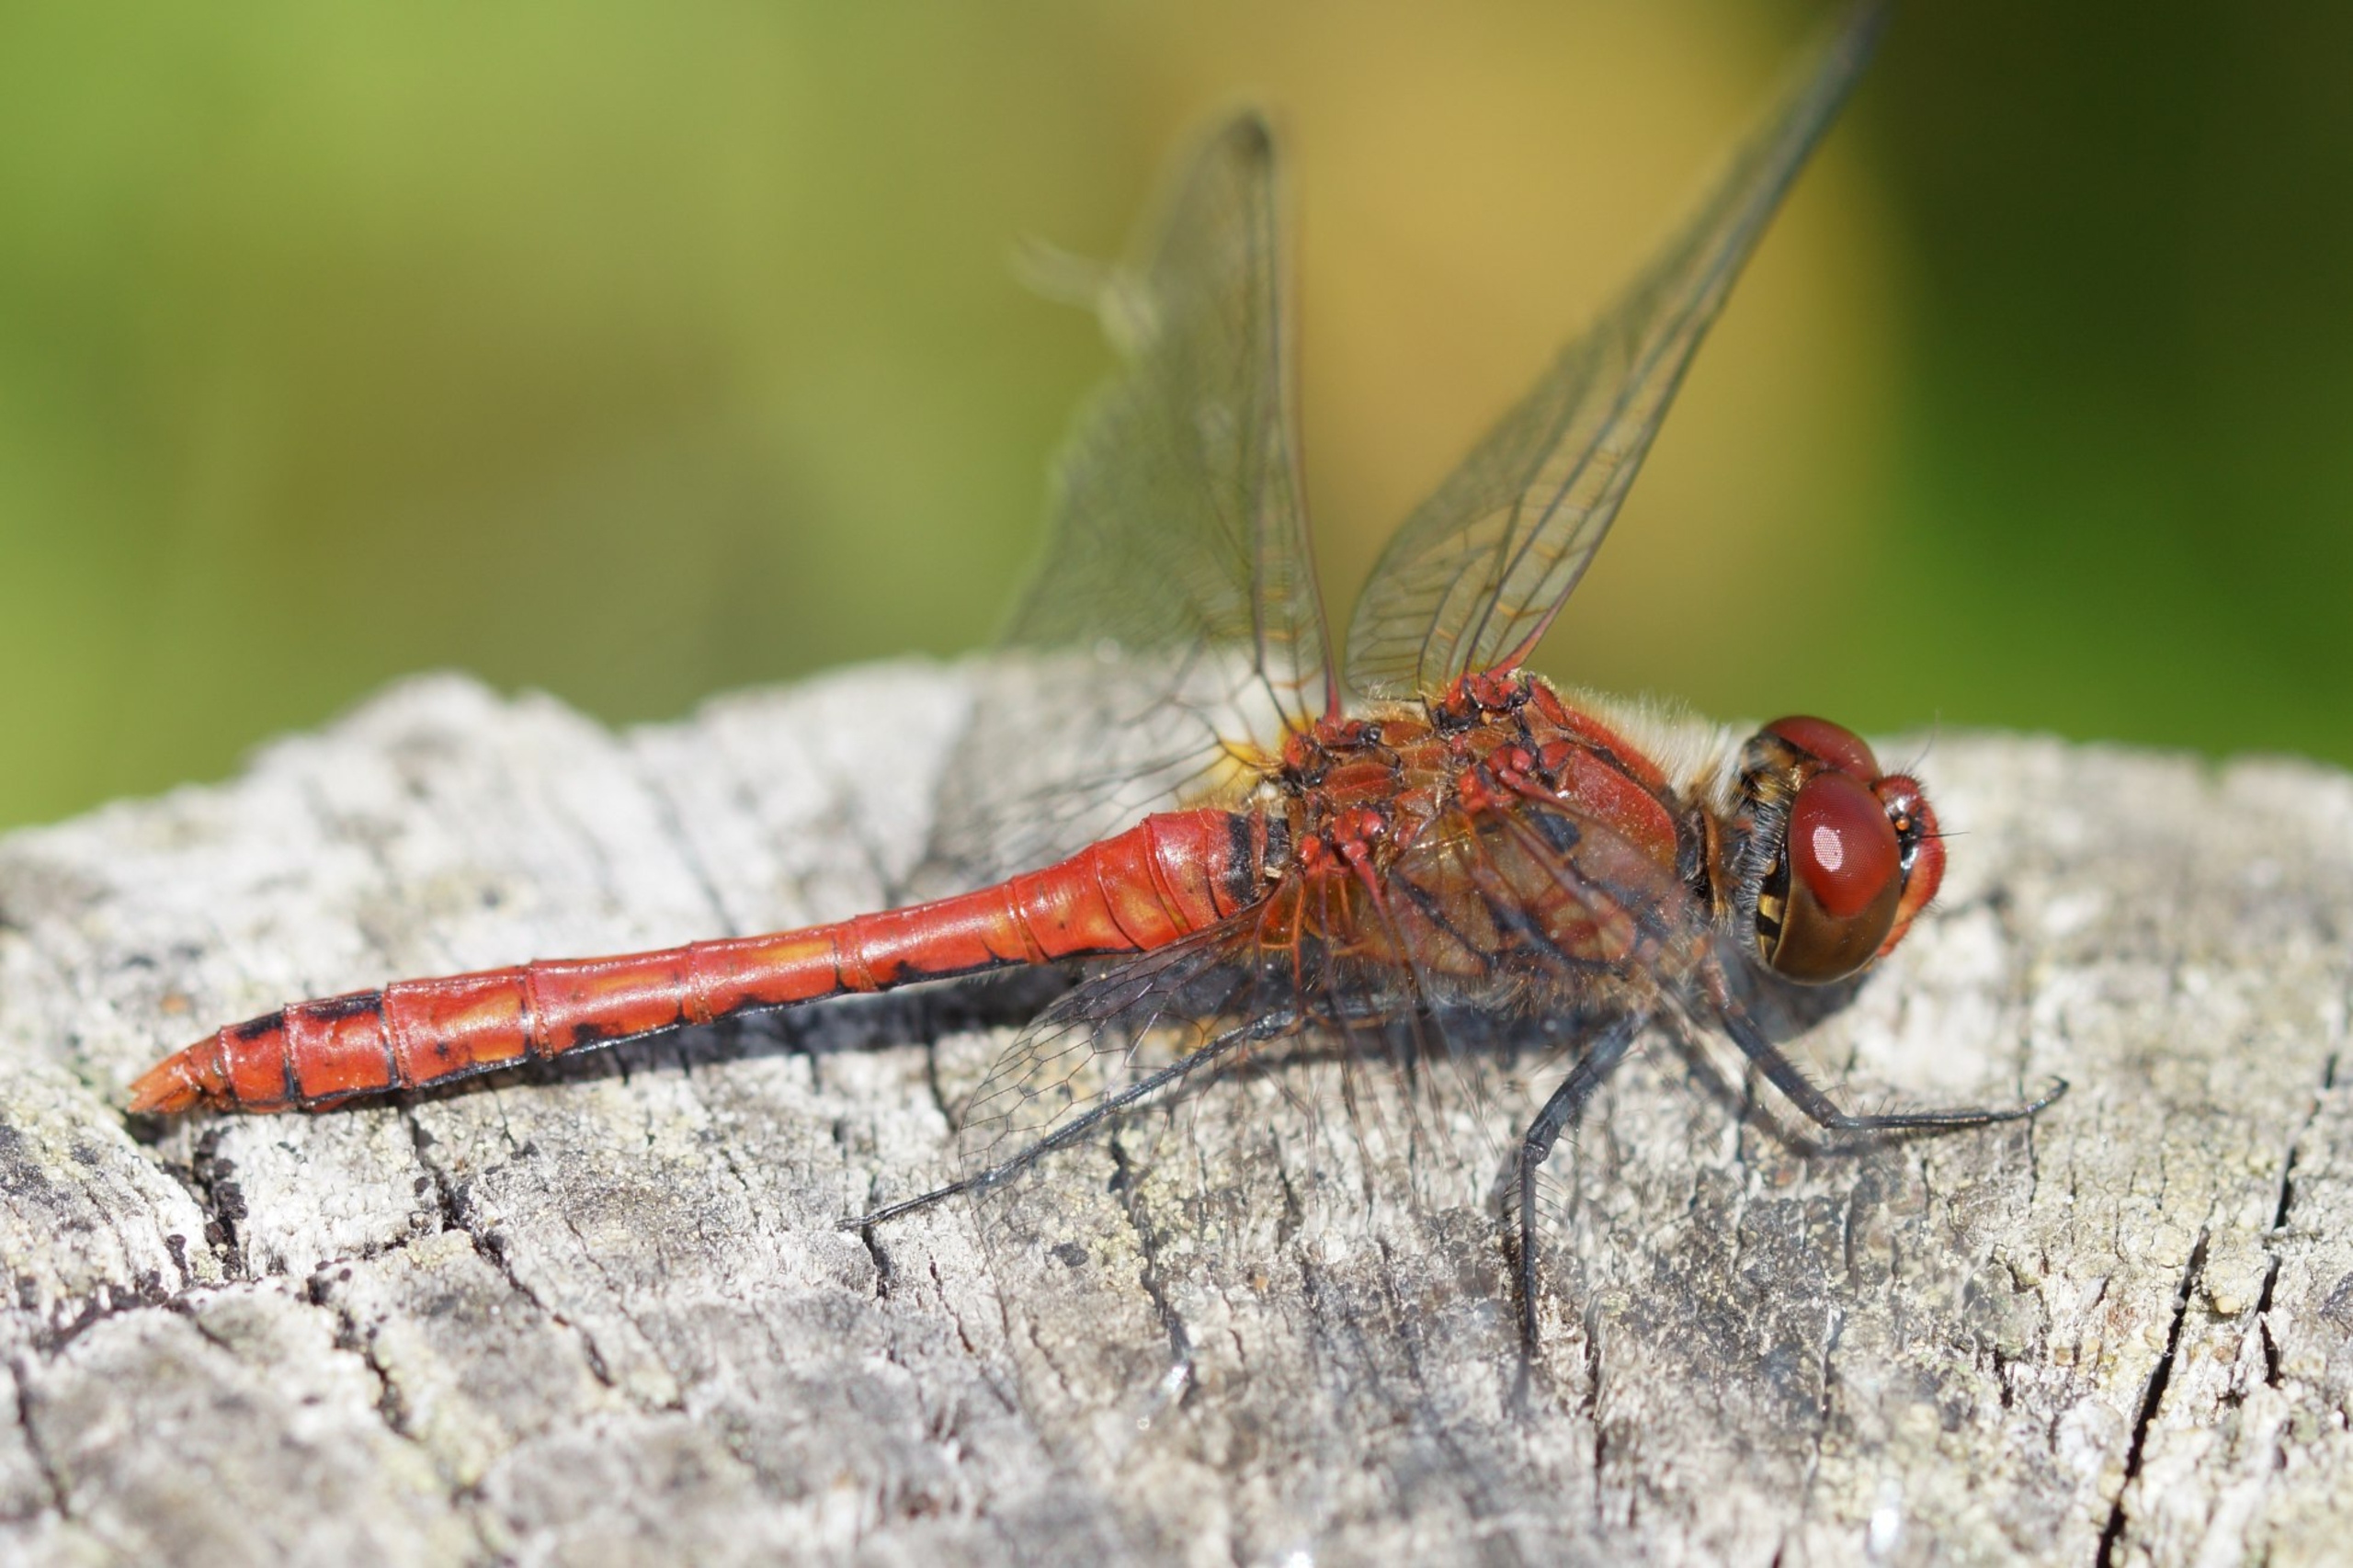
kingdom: Animalia
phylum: Arthropoda
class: Insecta
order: Odonata
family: Libellulidae
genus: Sympetrum
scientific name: Sympetrum sanguineum
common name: Blodrød hedelibel
